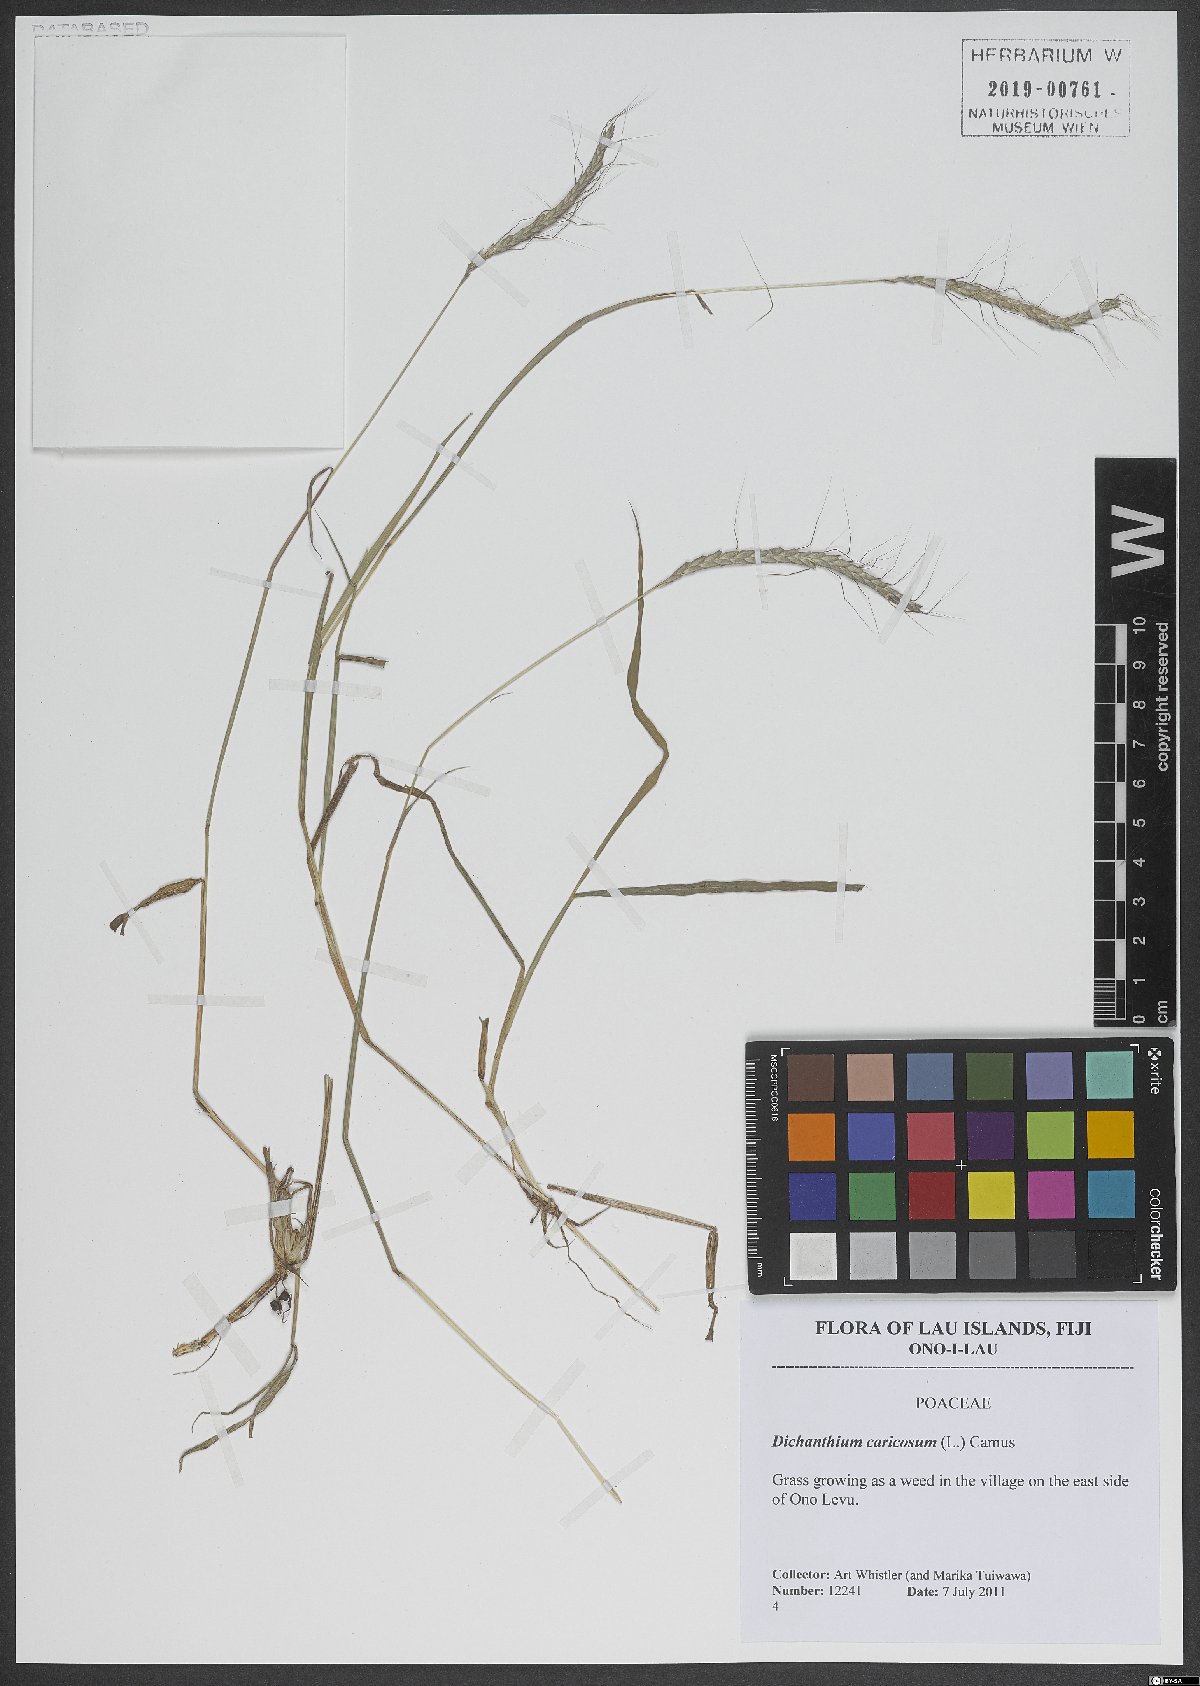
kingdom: Plantae
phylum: Tracheophyta
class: Liliopsida
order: Poales
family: Poaceae
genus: Dichanthium
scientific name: Dichanthium caricosum
